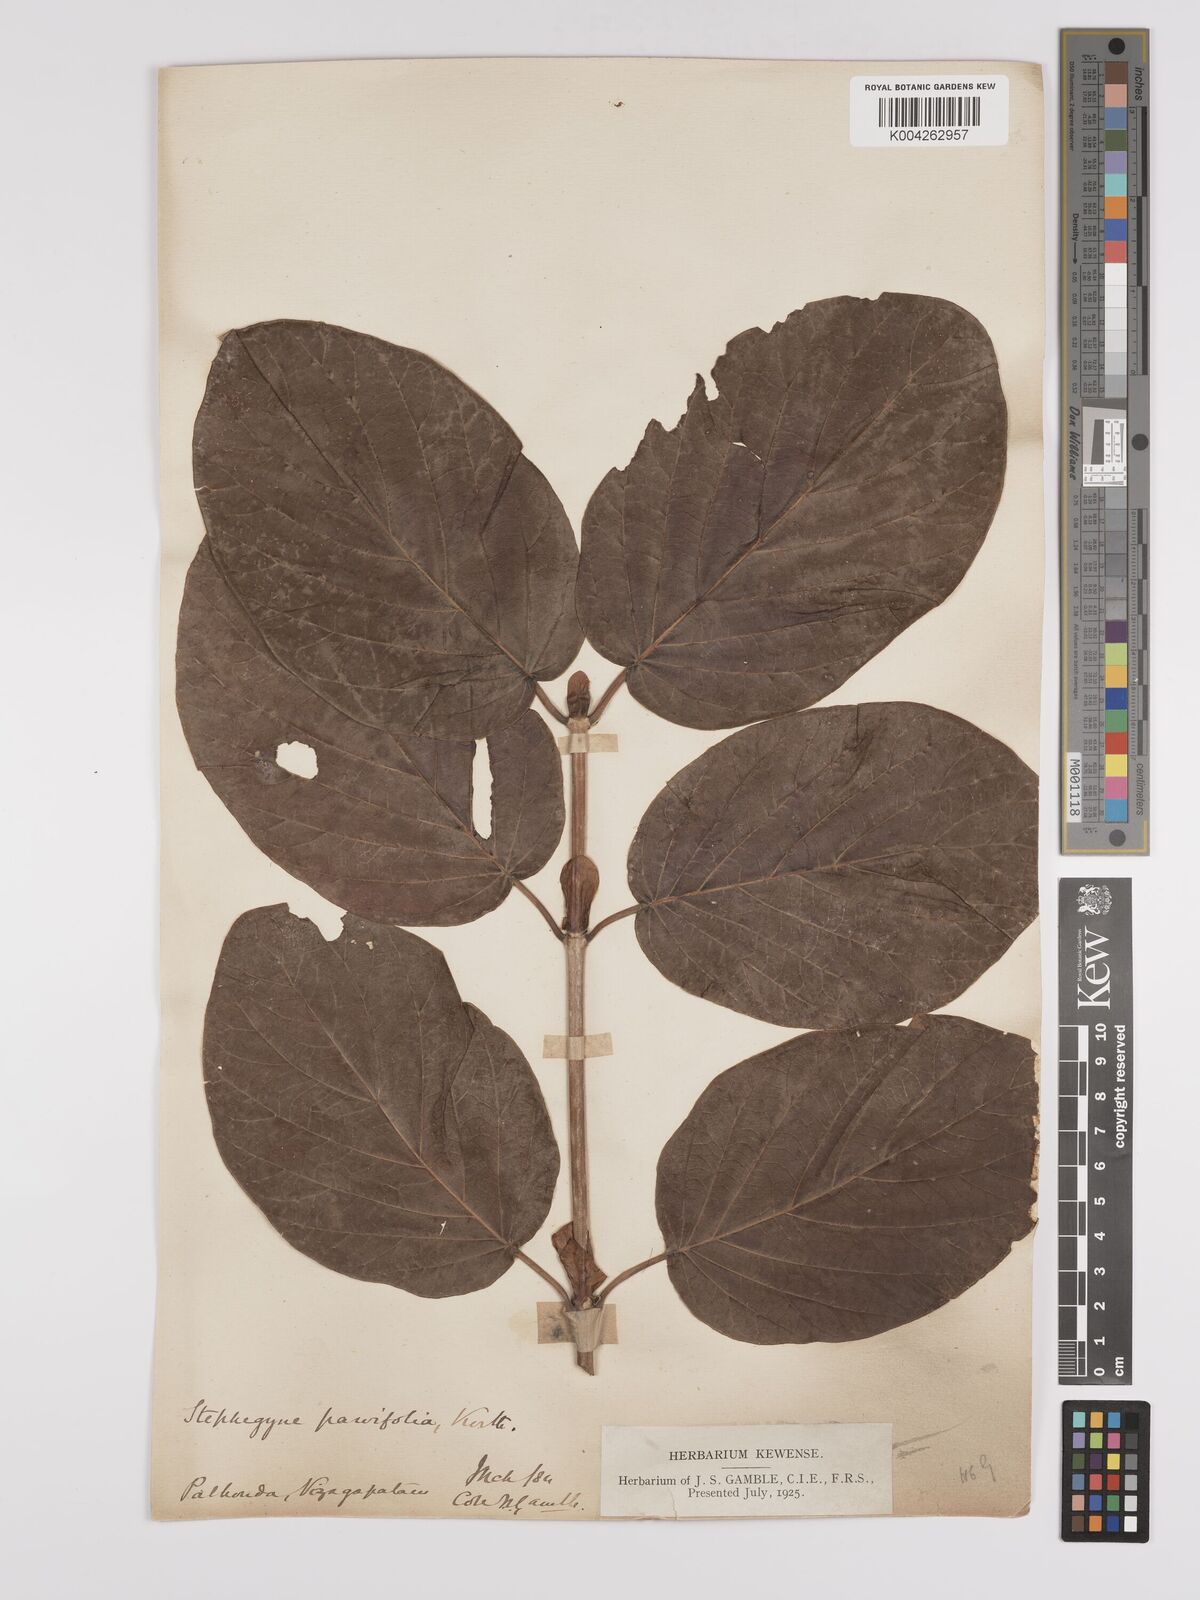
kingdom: Plantae
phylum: Tracheophyta
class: Magnoliopsida
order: Gentianales
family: Rubiaceae
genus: Mitragyna
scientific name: Mitragyna parvifolia
